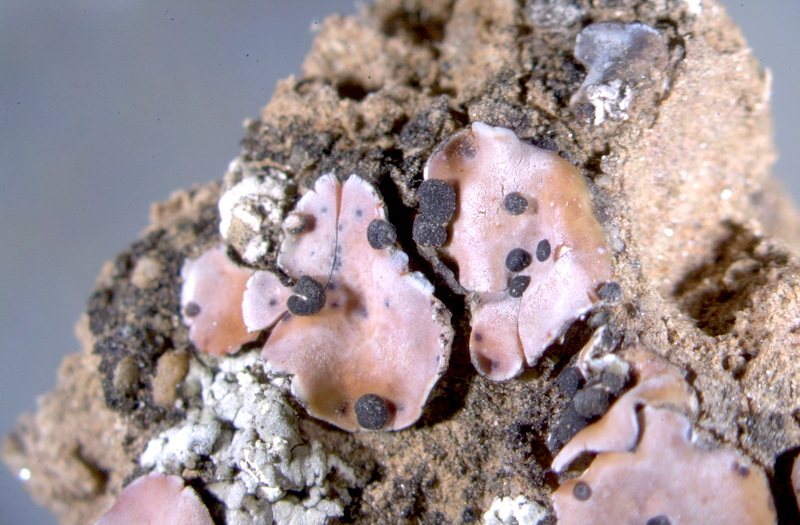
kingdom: Fungi
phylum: Ascomycota
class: Lecanoromycetes
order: Lecanorales
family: Psoraceae
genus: Psora
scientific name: Psora crenata
